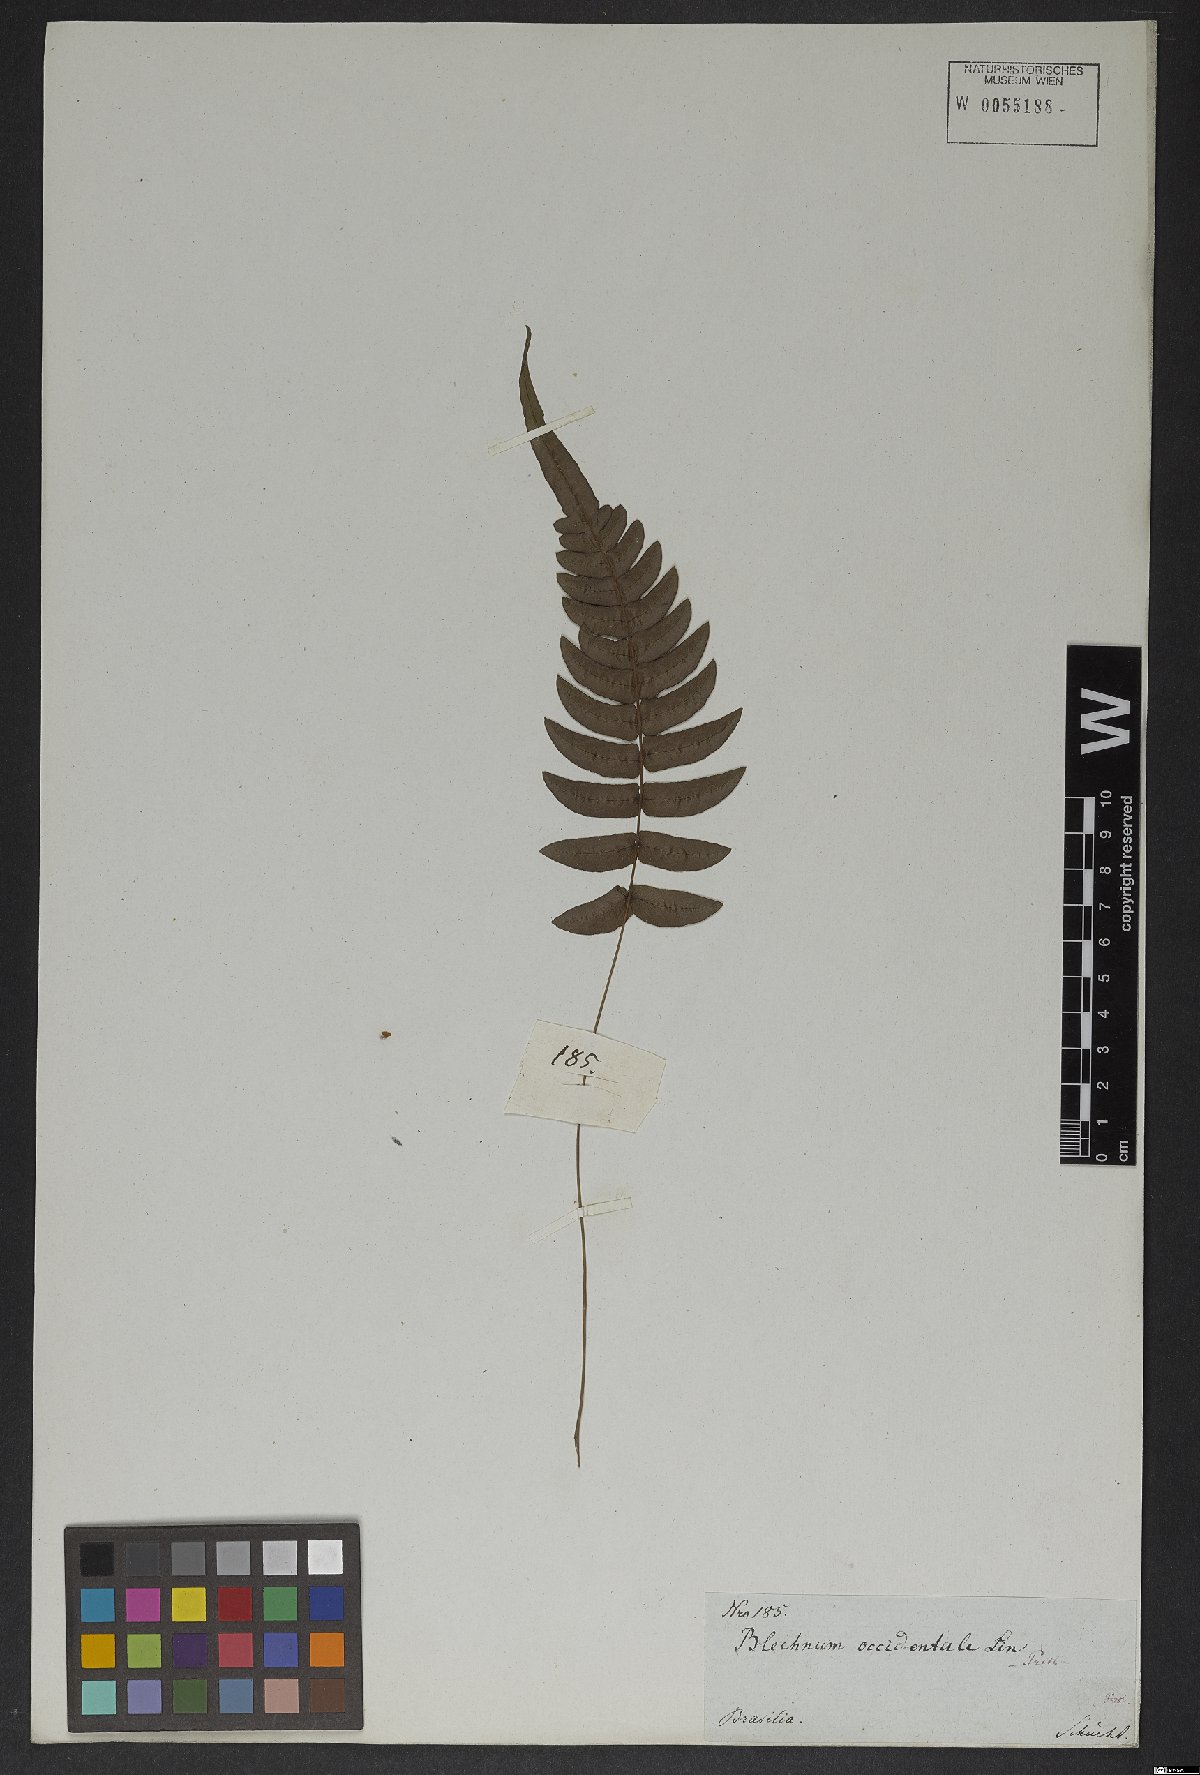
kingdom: Plantae
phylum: Tracheophyta
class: Polypodiopsida
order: Polypodiales
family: Blechnaceae
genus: Blechnum
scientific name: Blechnum occidentale
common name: Hammock fern
